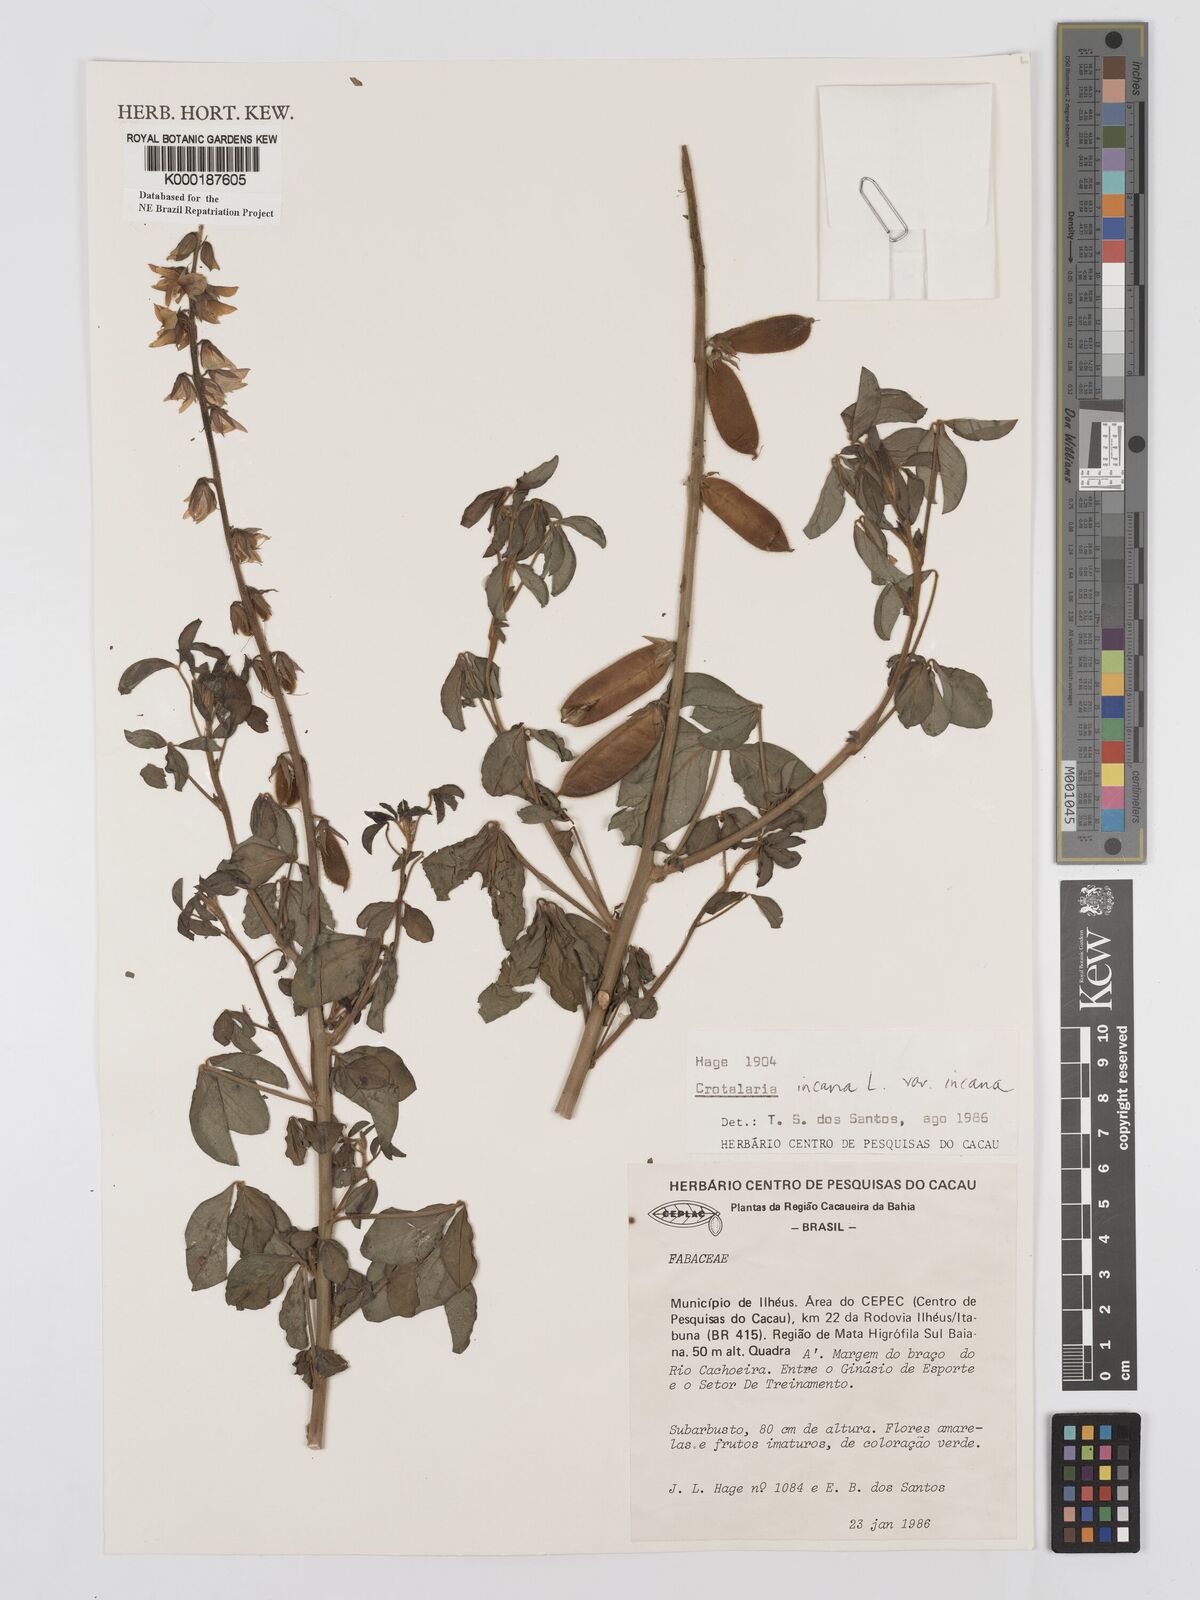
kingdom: Plantae
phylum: Tracheophyta
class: Magnoliopsida
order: Fabales
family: Fabaceae
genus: Crotalaria
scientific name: Crotalaria incana
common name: Shakeshake
